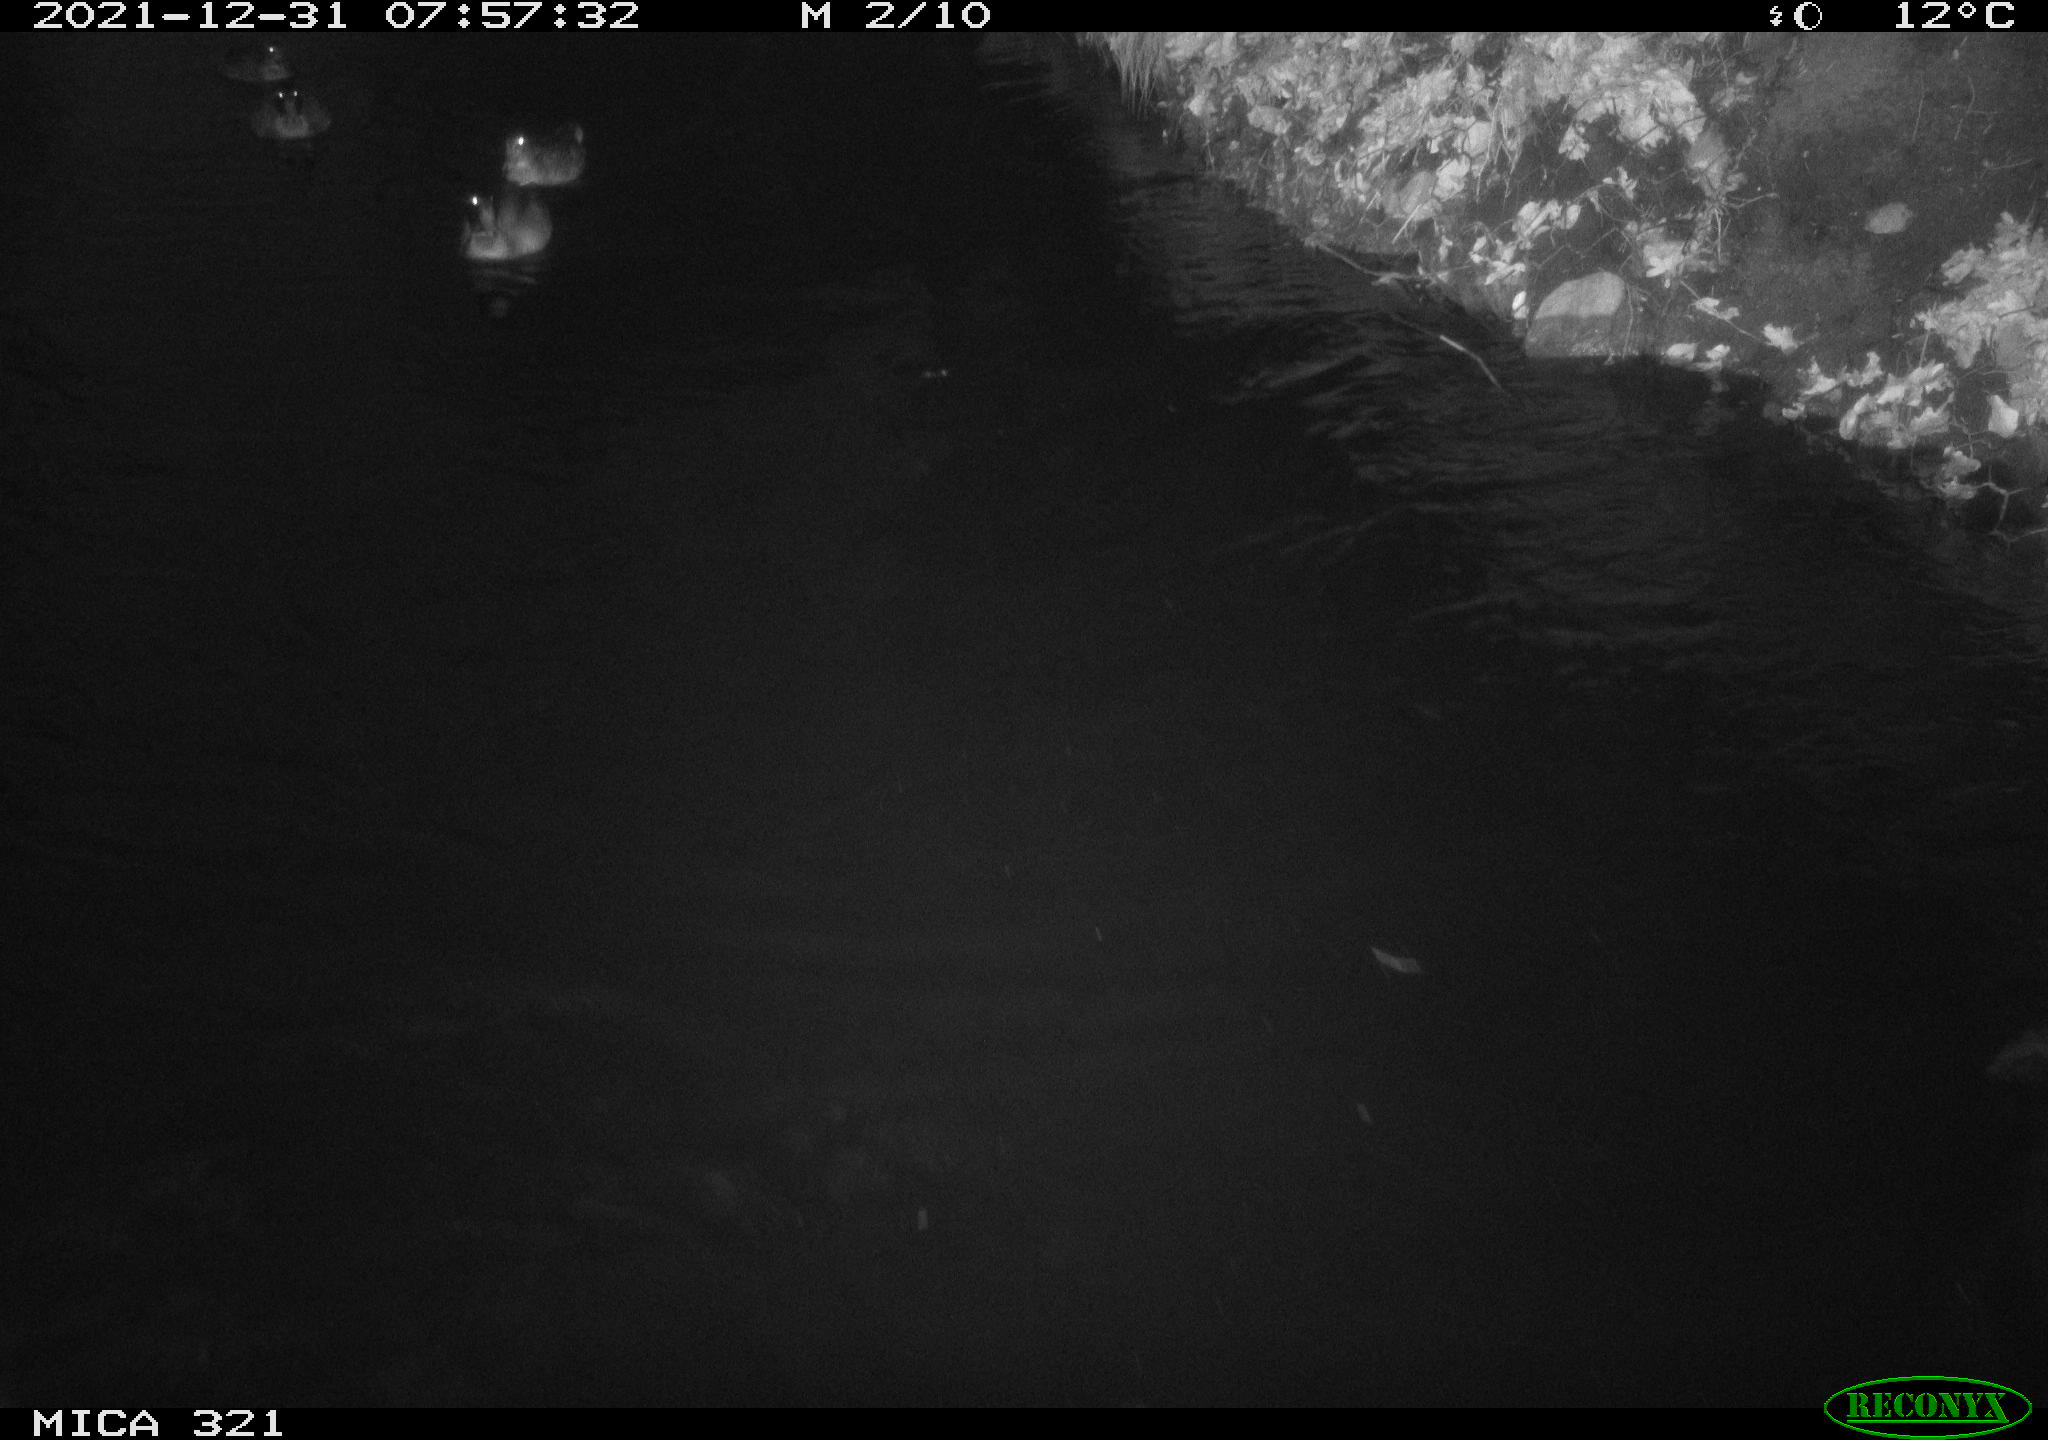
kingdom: Animalia
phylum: Chordata
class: Aves
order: Anseriformes
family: Anatidae
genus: Anas
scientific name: Anas
